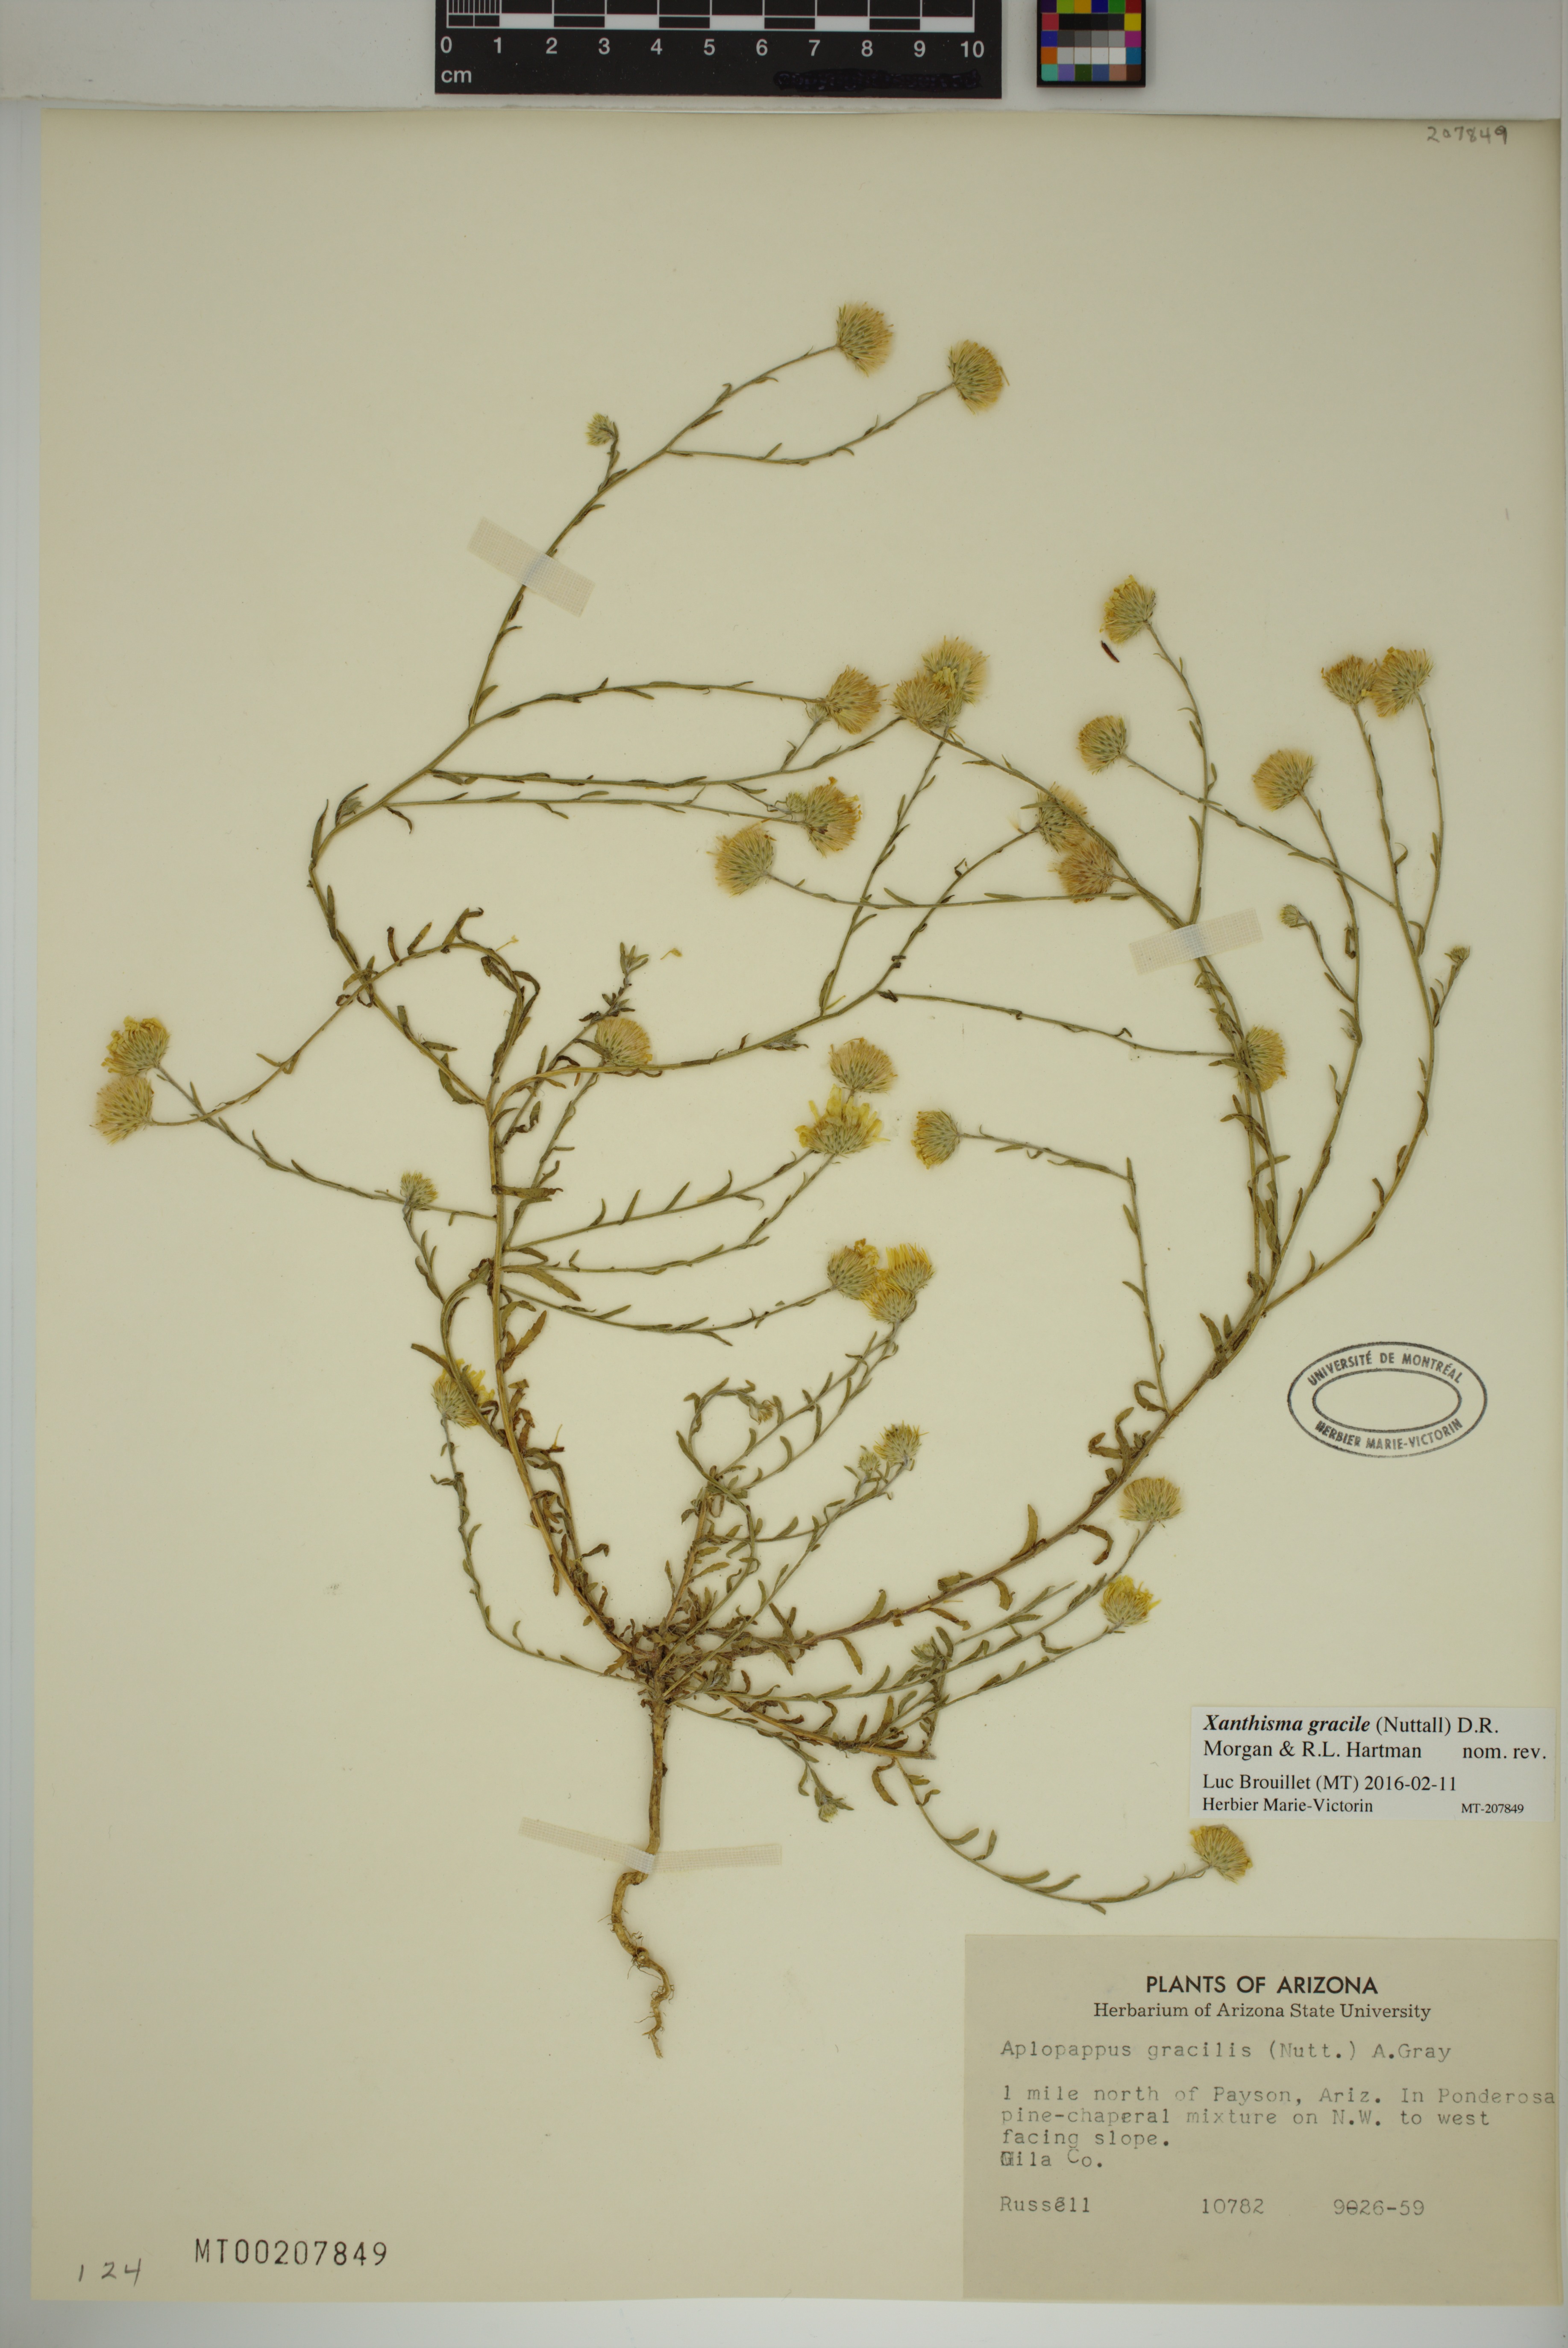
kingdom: Plantae
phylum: Tracheophyta
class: Magnoliopsida
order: Asterales
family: Asteraceae
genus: Xanthisma
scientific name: Xanthisma gracile
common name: Slender goldenweed
